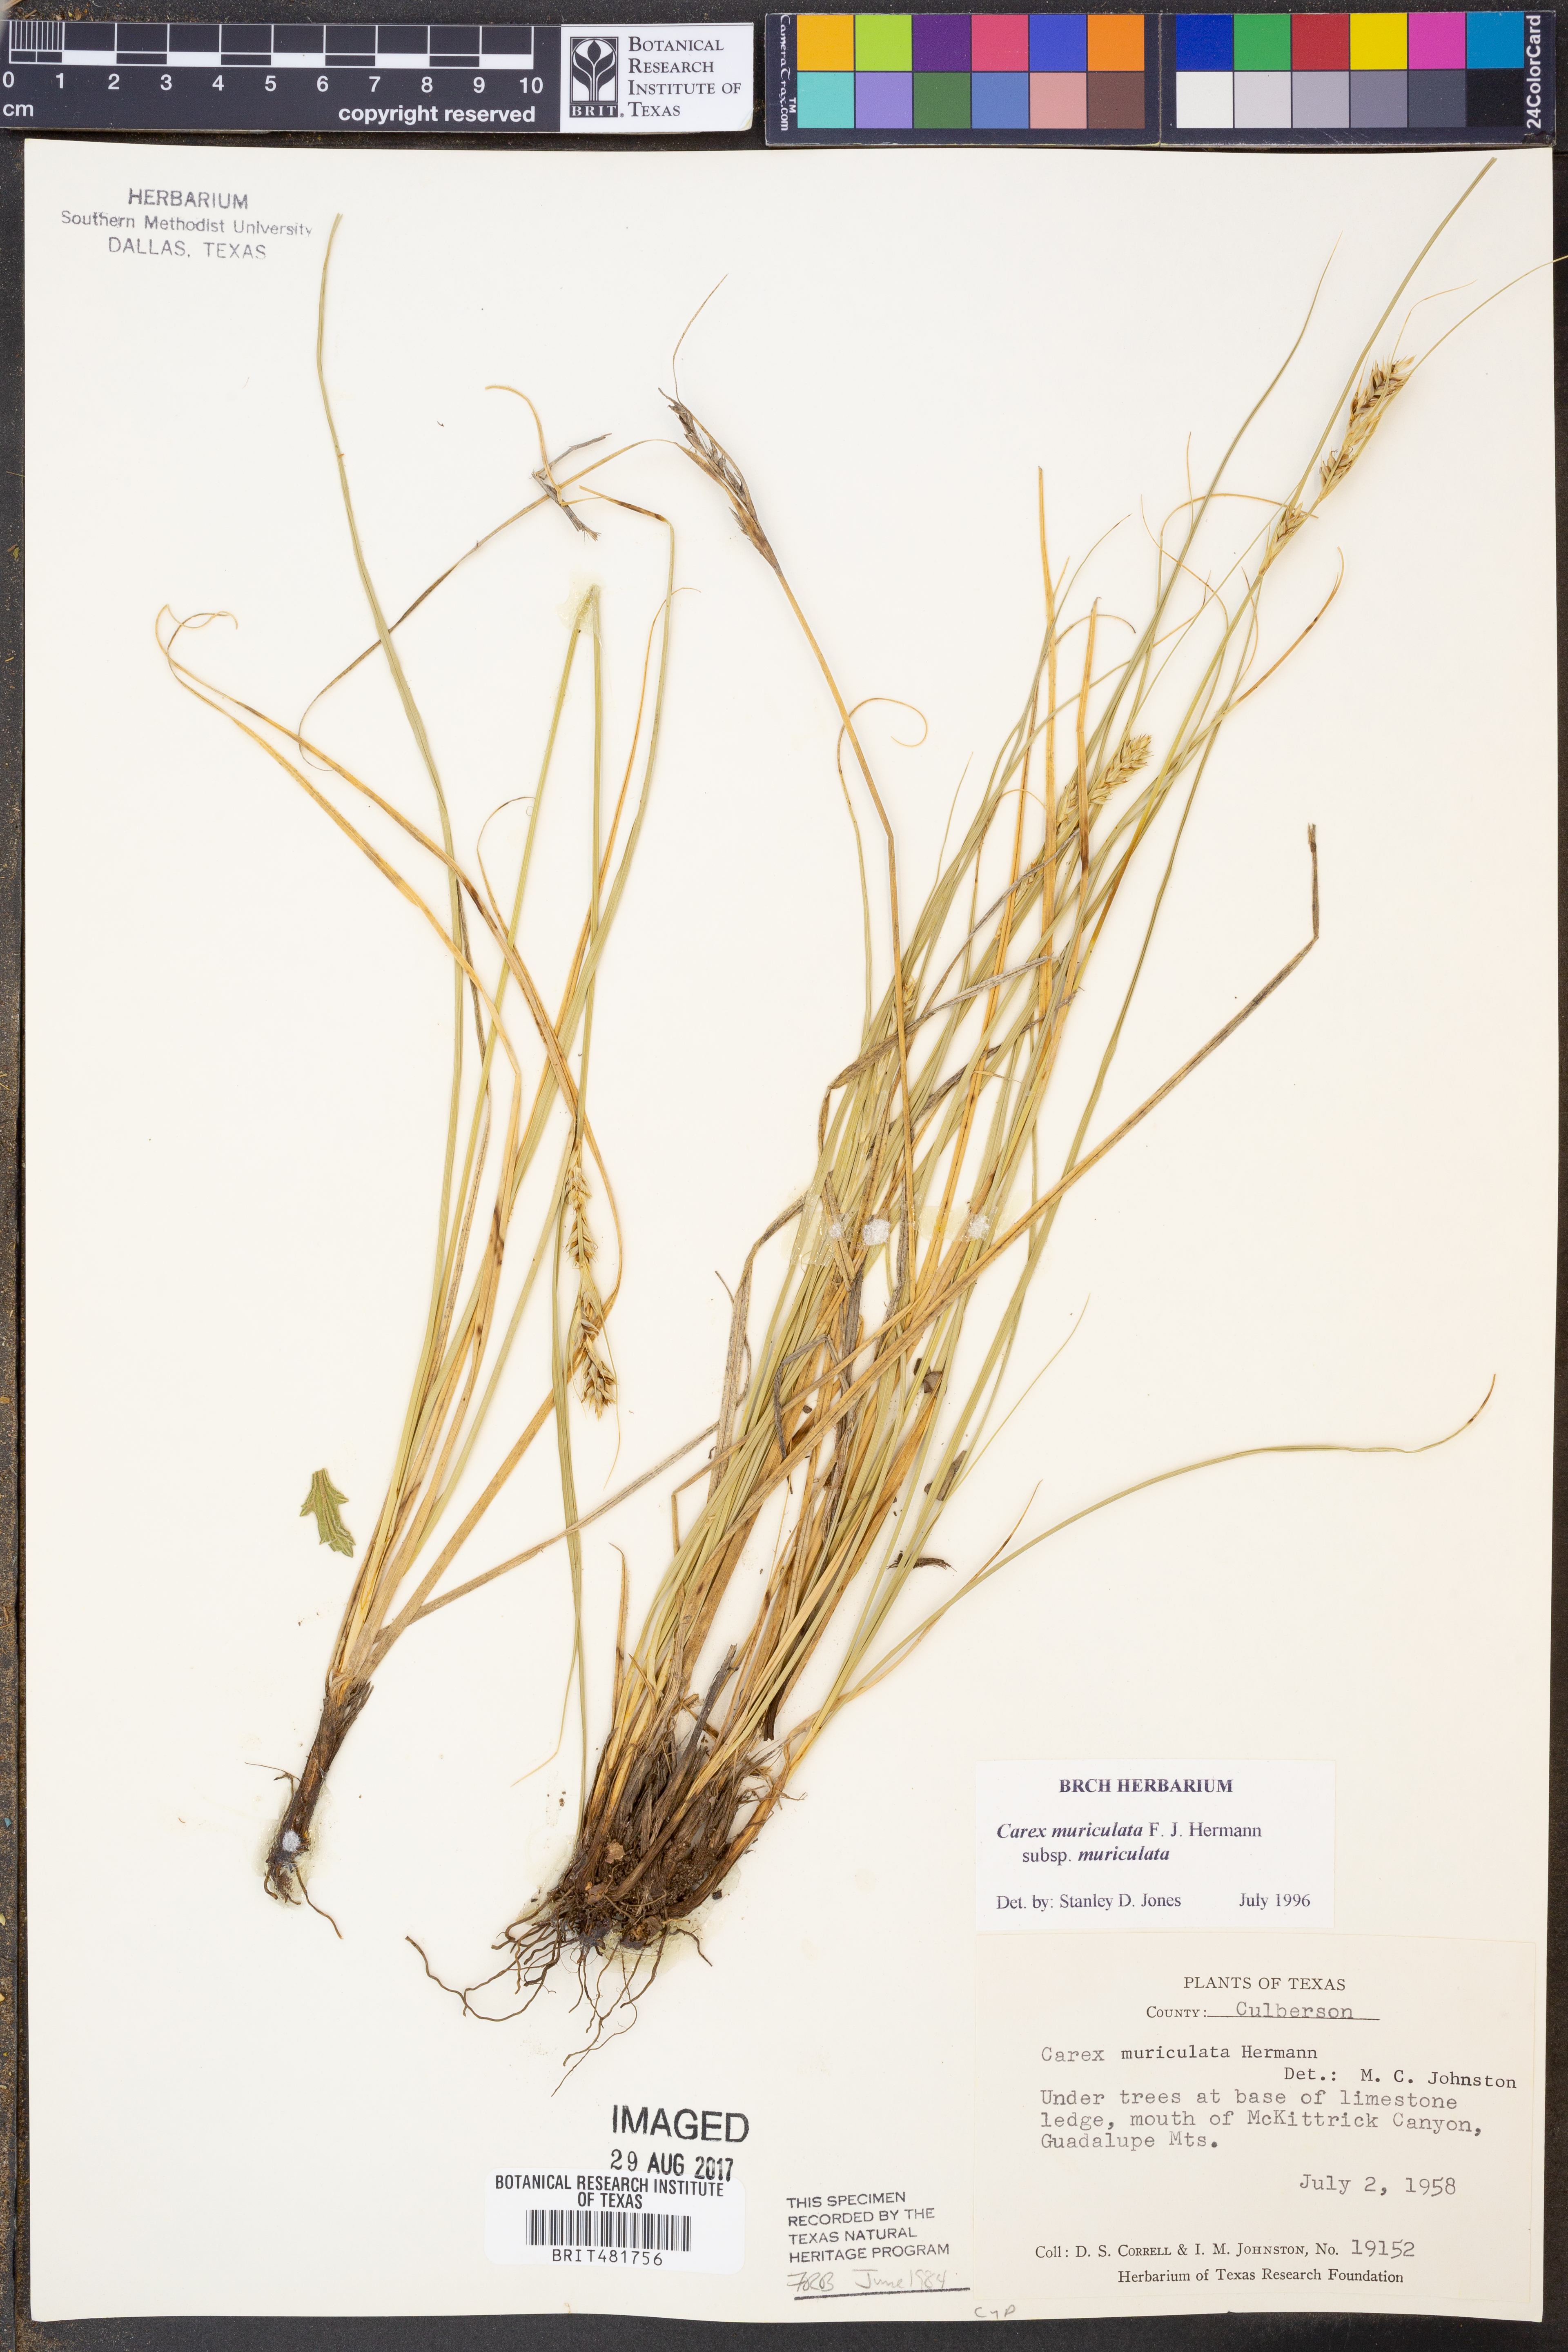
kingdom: Plantae
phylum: Tracheophyta
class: Liliopsida
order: Poales
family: Cyperaceae
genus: Carex
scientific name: Carex muricata
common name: Rough sedge
